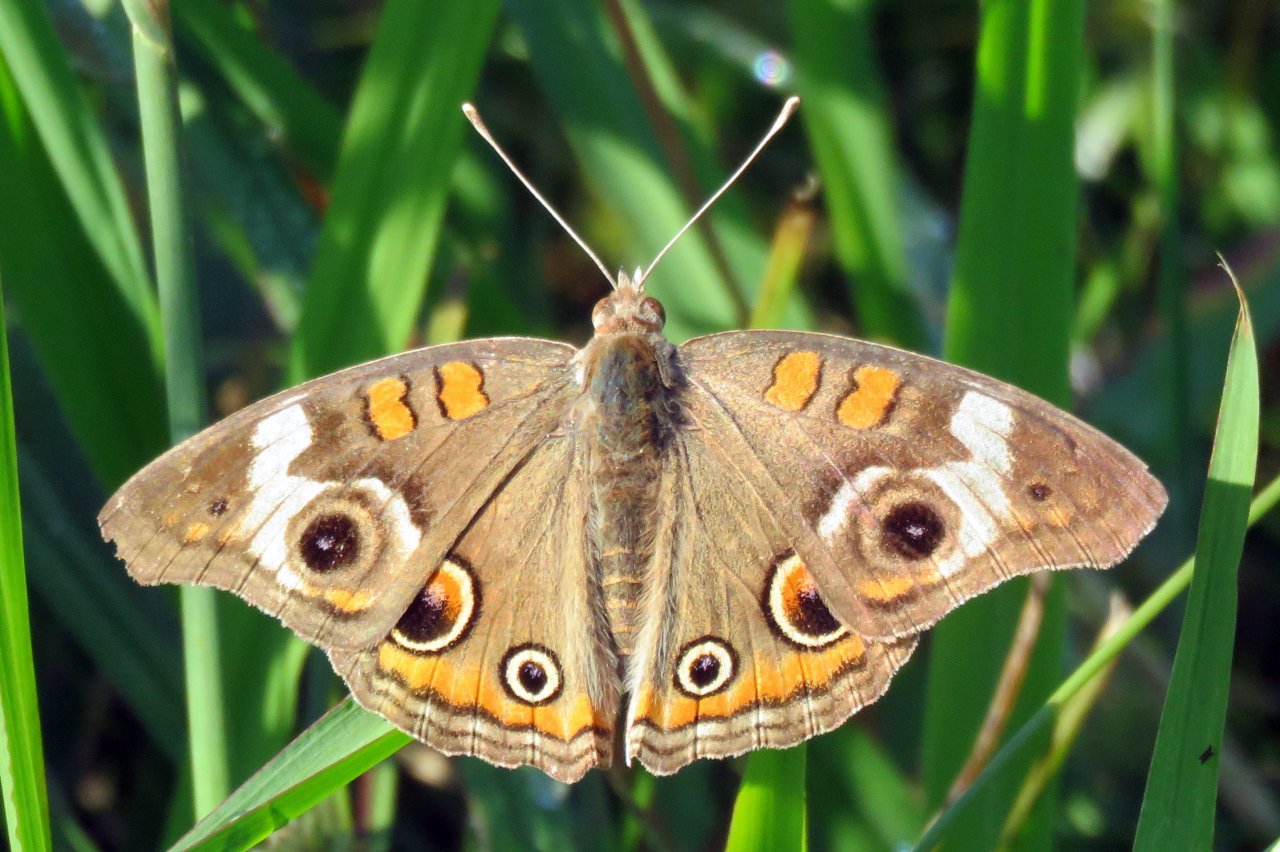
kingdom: Animalia
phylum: Arthropoda
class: Insecta
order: Lepidoptera
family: Nymphalidae
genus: Junonia
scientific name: Junonia coenia
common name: Common Buckeye
